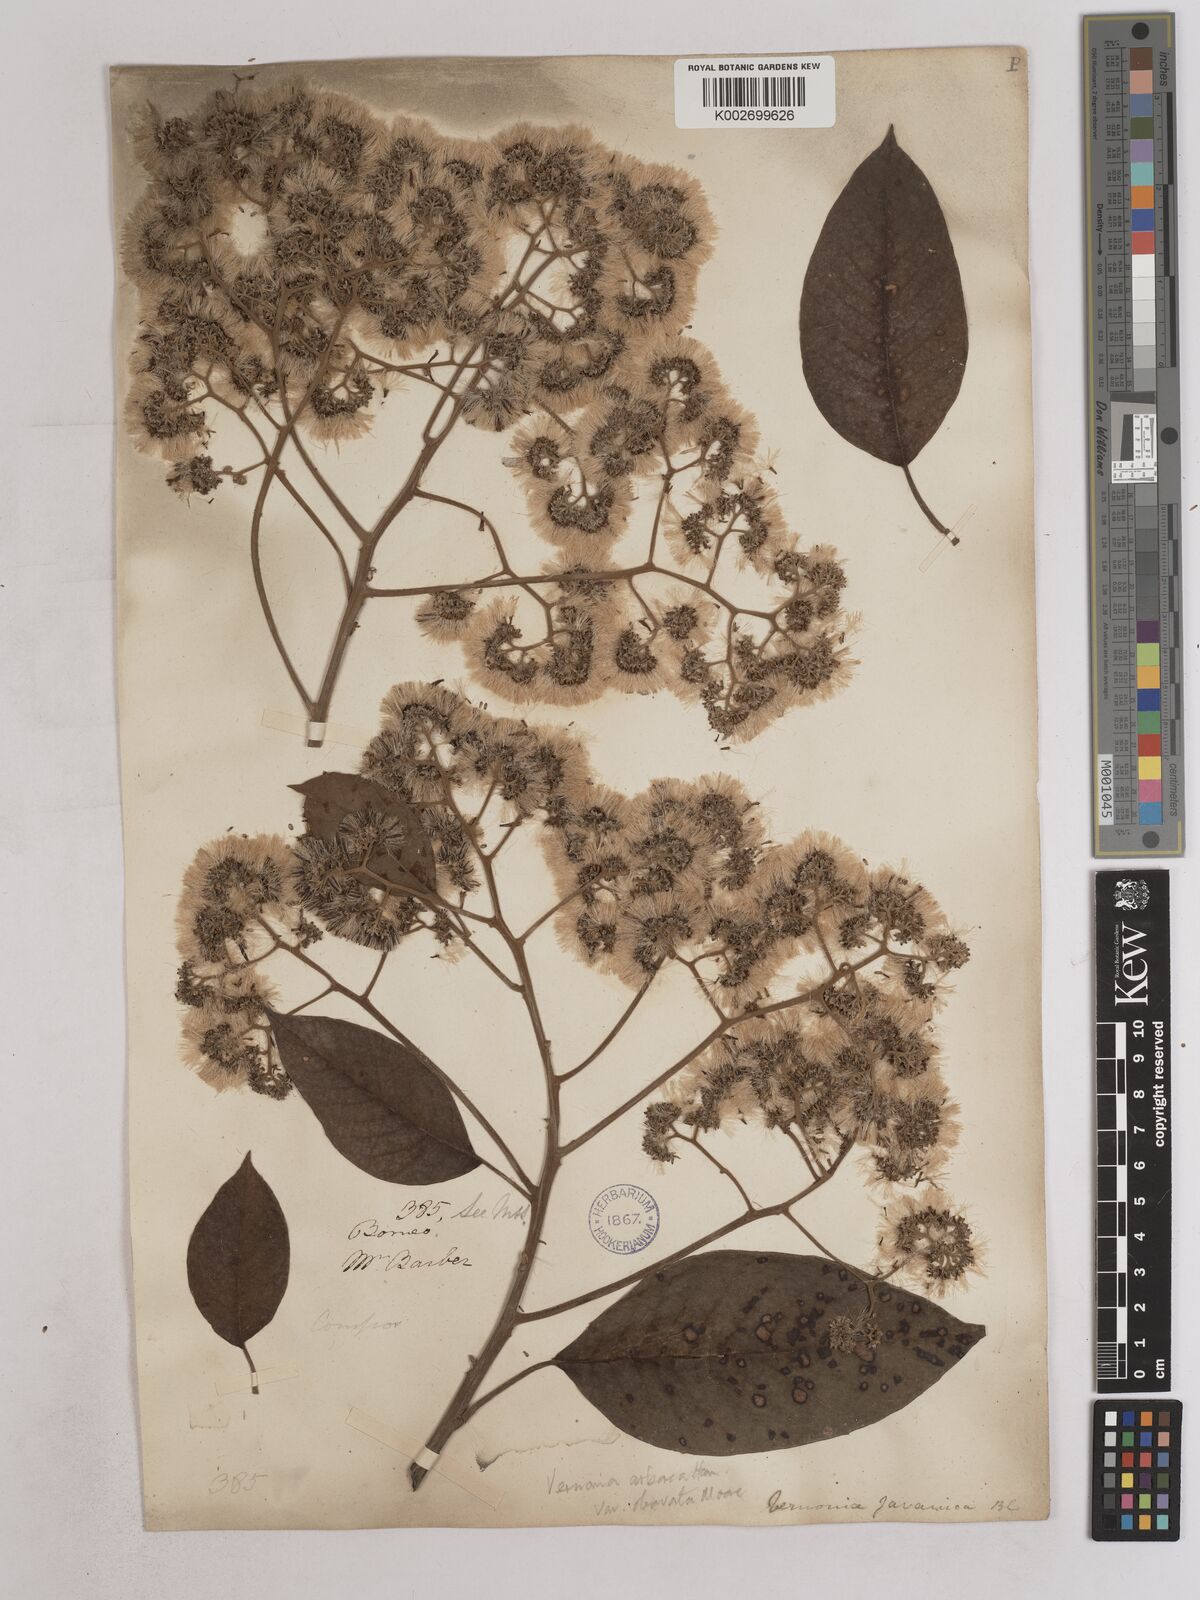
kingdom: Plantae
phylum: Tracheophyta
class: Magnoliopsida
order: Asterales
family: Asteraceae
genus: Strobocalyx
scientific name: Strobocalyx arborea
